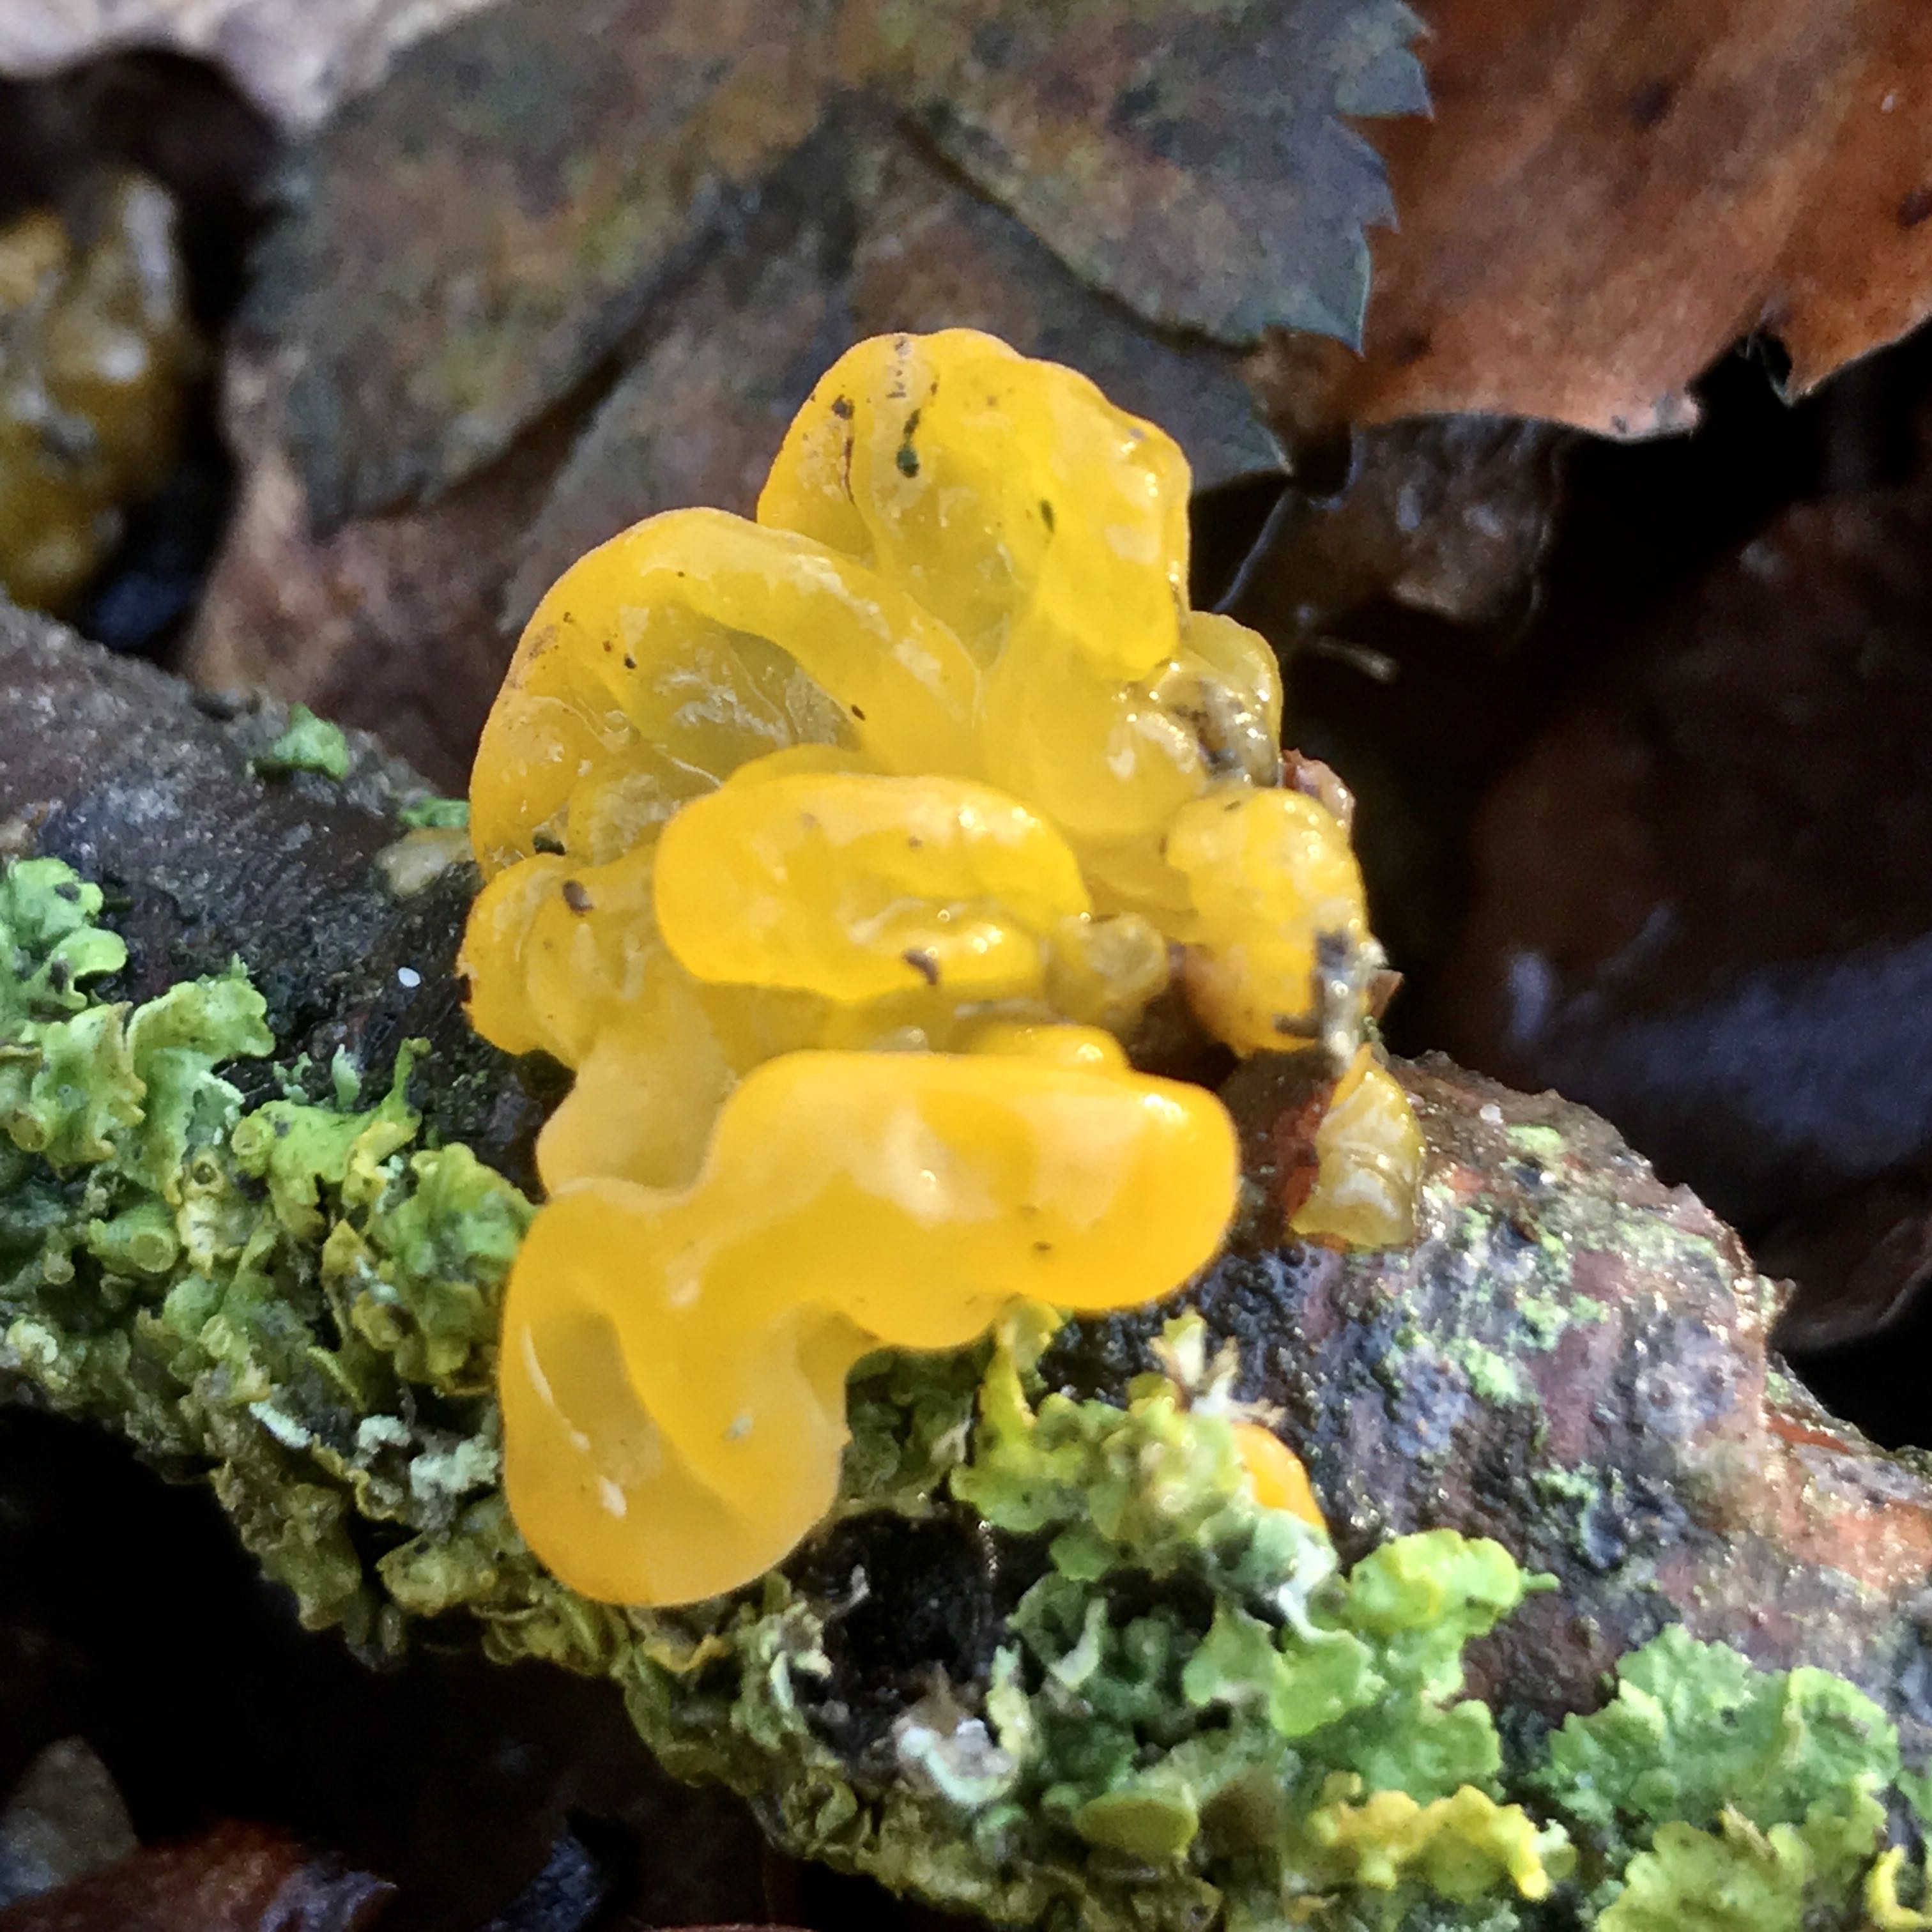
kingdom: Fungi
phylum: Basidiomycota
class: Tremellomycetes
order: Tremellales
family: Tremellaceae
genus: Tremella
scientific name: Tremella mesenterica
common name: gul bævresvamp
